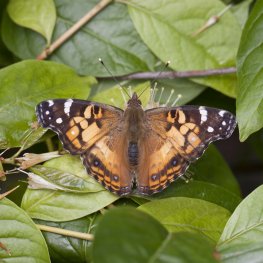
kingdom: Animalia
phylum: Arthropoda
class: Insecta
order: Lepidoptera
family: Nymphalidae
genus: Vanessa
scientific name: Vanessa virginiensis
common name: American Lady
